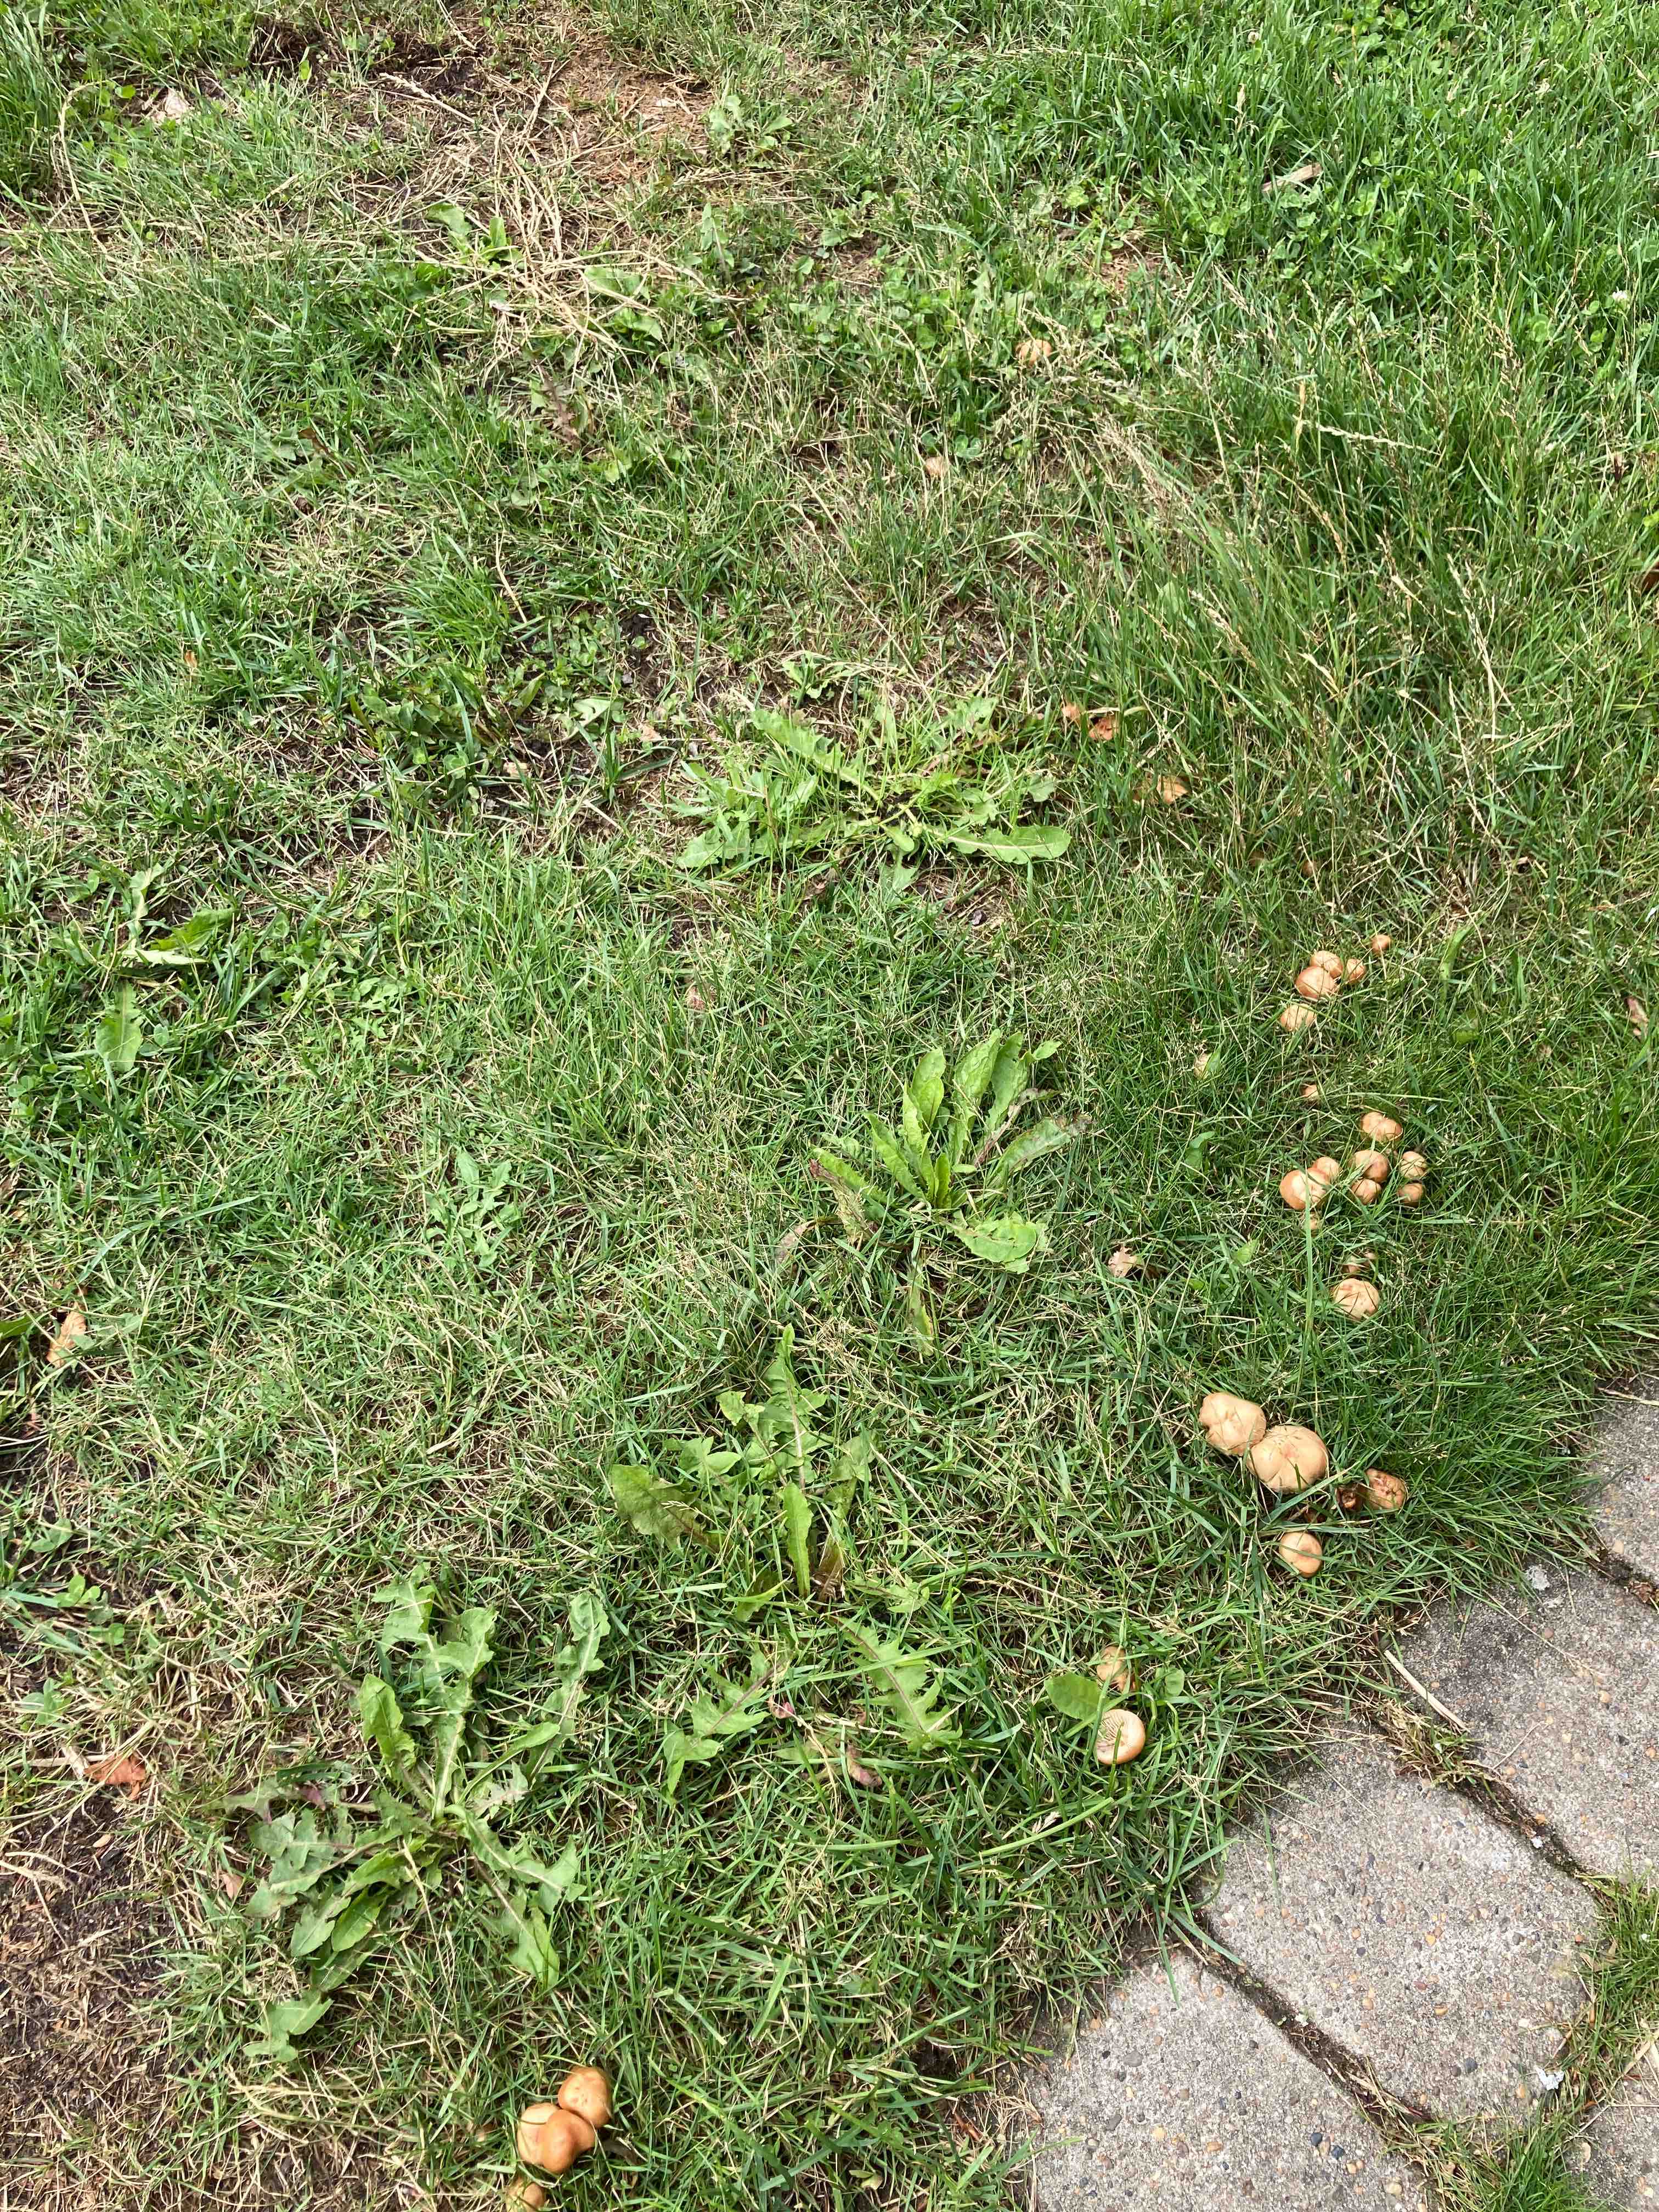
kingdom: Fungi
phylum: Basidiomycota
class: Agaricomycetes
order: Agaricales
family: Marasmiaceae
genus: Marasmius
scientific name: Marasmius oreades
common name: elledans-bruskhat
